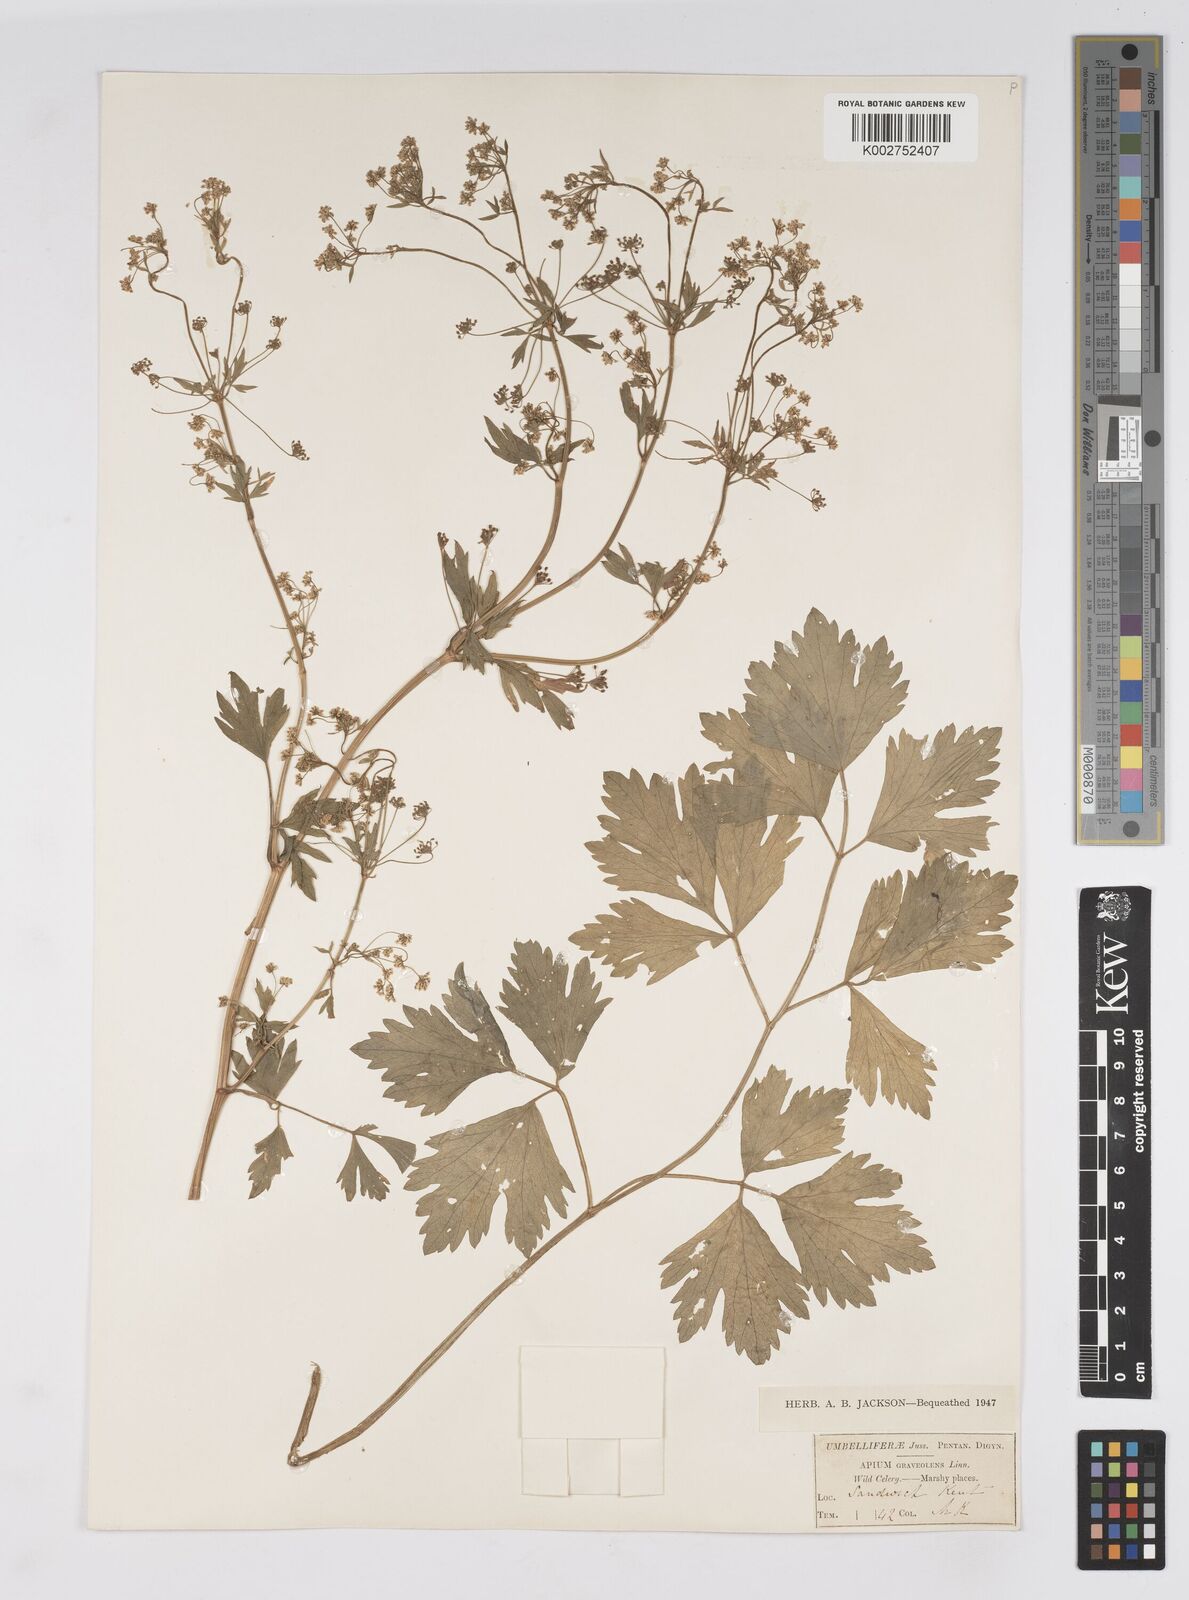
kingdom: Plantae
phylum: Tracheophyta
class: Magnoliopsida
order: Apiales
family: Apiaceae
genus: Apium
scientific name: Apium graveolens
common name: Wild celery
